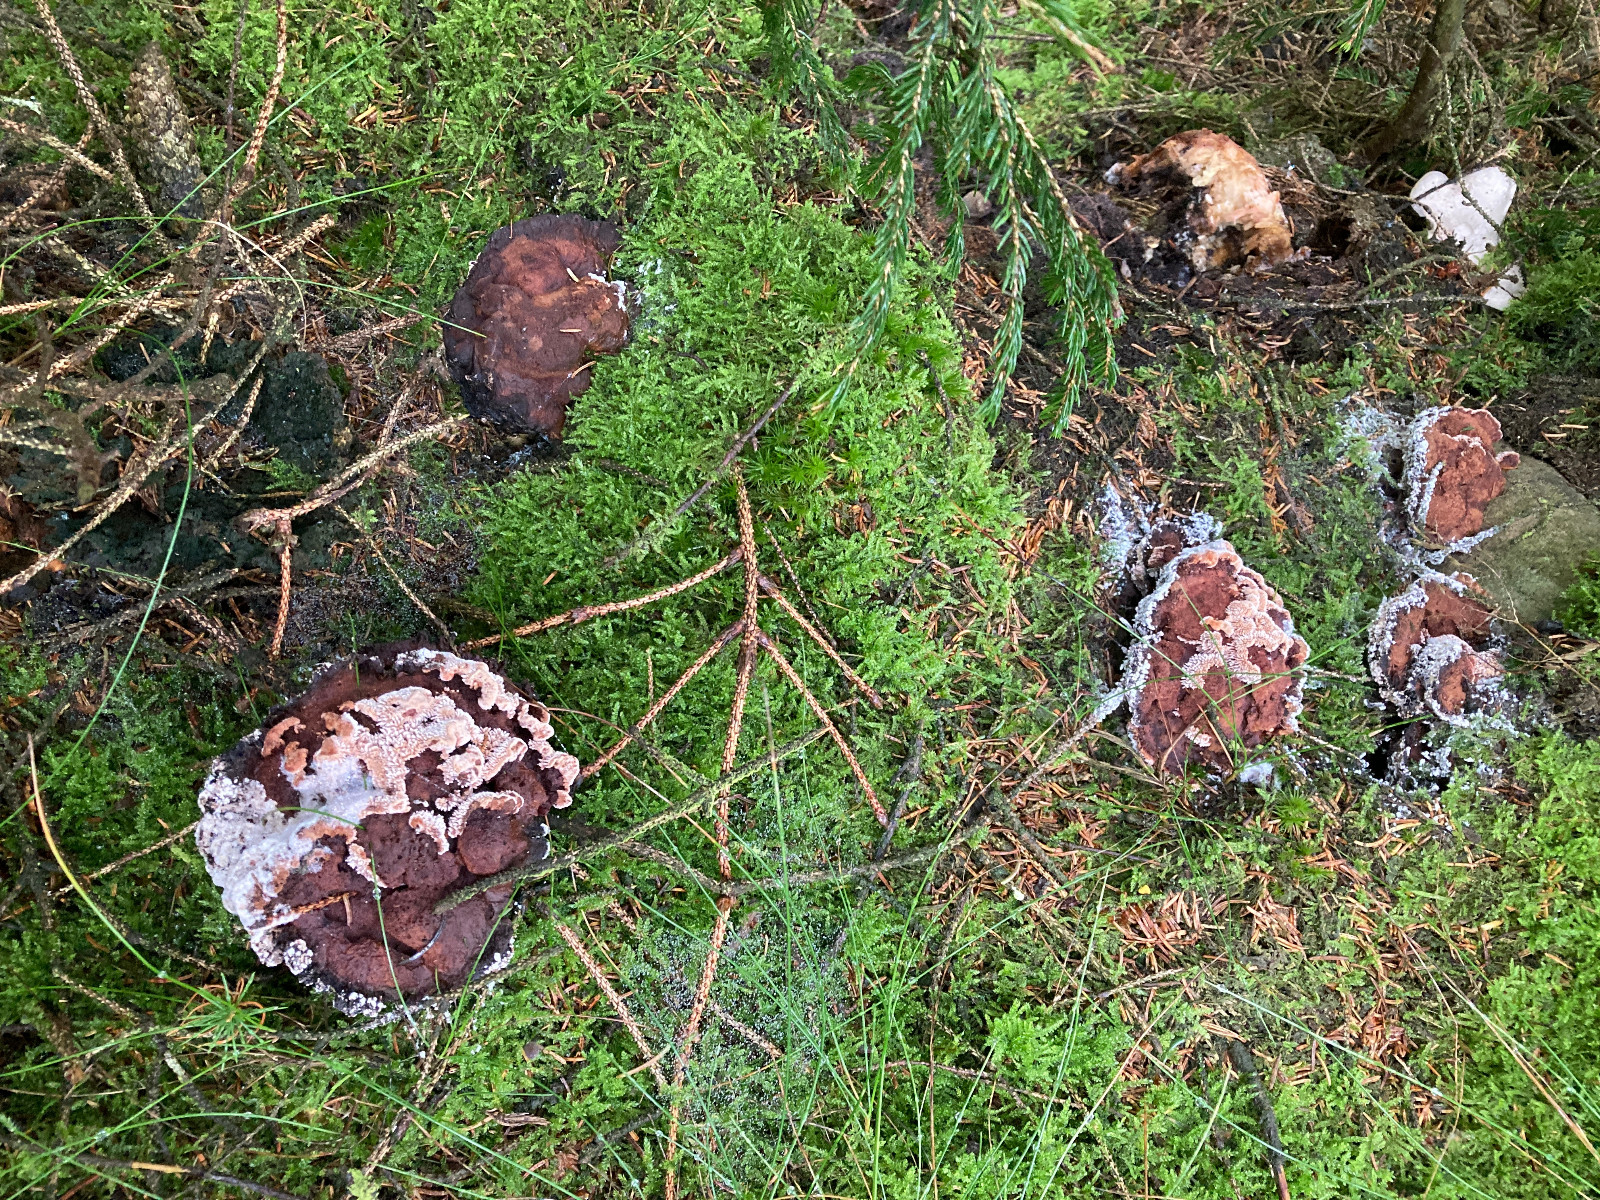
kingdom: Fungi
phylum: Basidiomycota
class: Agaricomycetes
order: Thelephorales
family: Bankeraceae
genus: Hydnellum
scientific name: Hydnellum ferrugineum
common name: rust-korkpigsvamp
